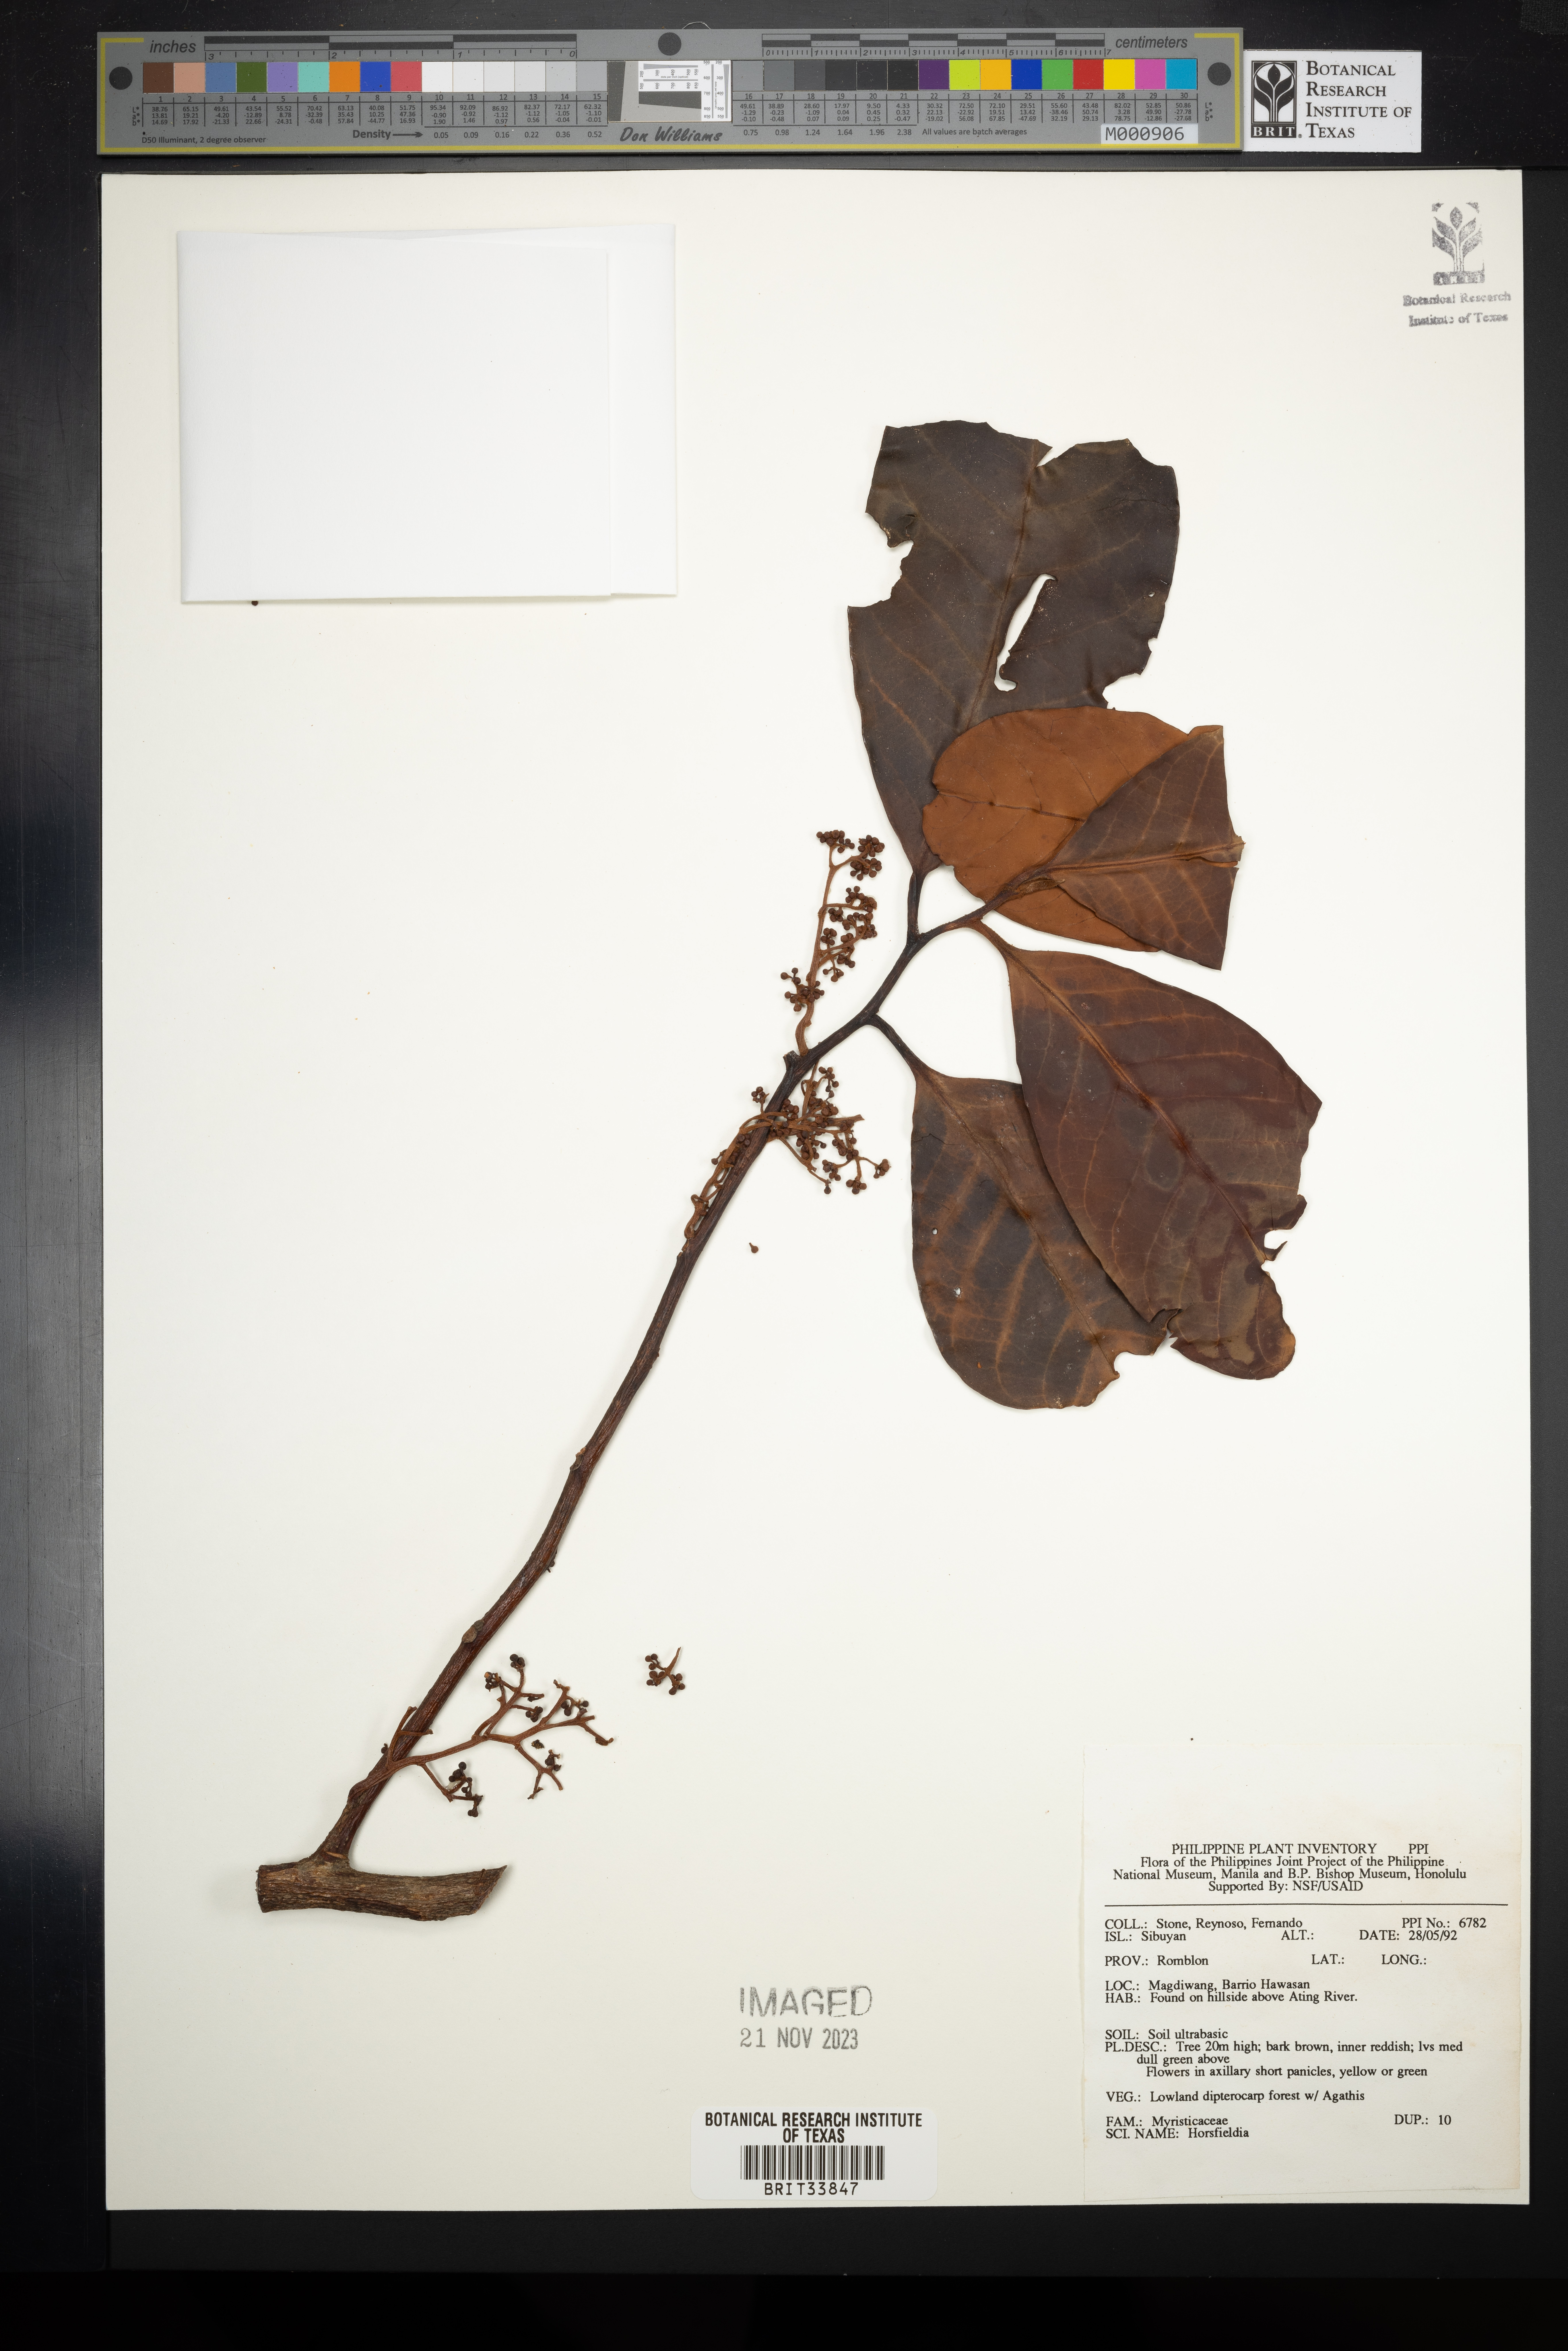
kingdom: Plantae
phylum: Tracheophyta
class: Magnoliopsida
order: Magnoliales
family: Myristicaceae
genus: Horsfieldia
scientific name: Horsfieldia
